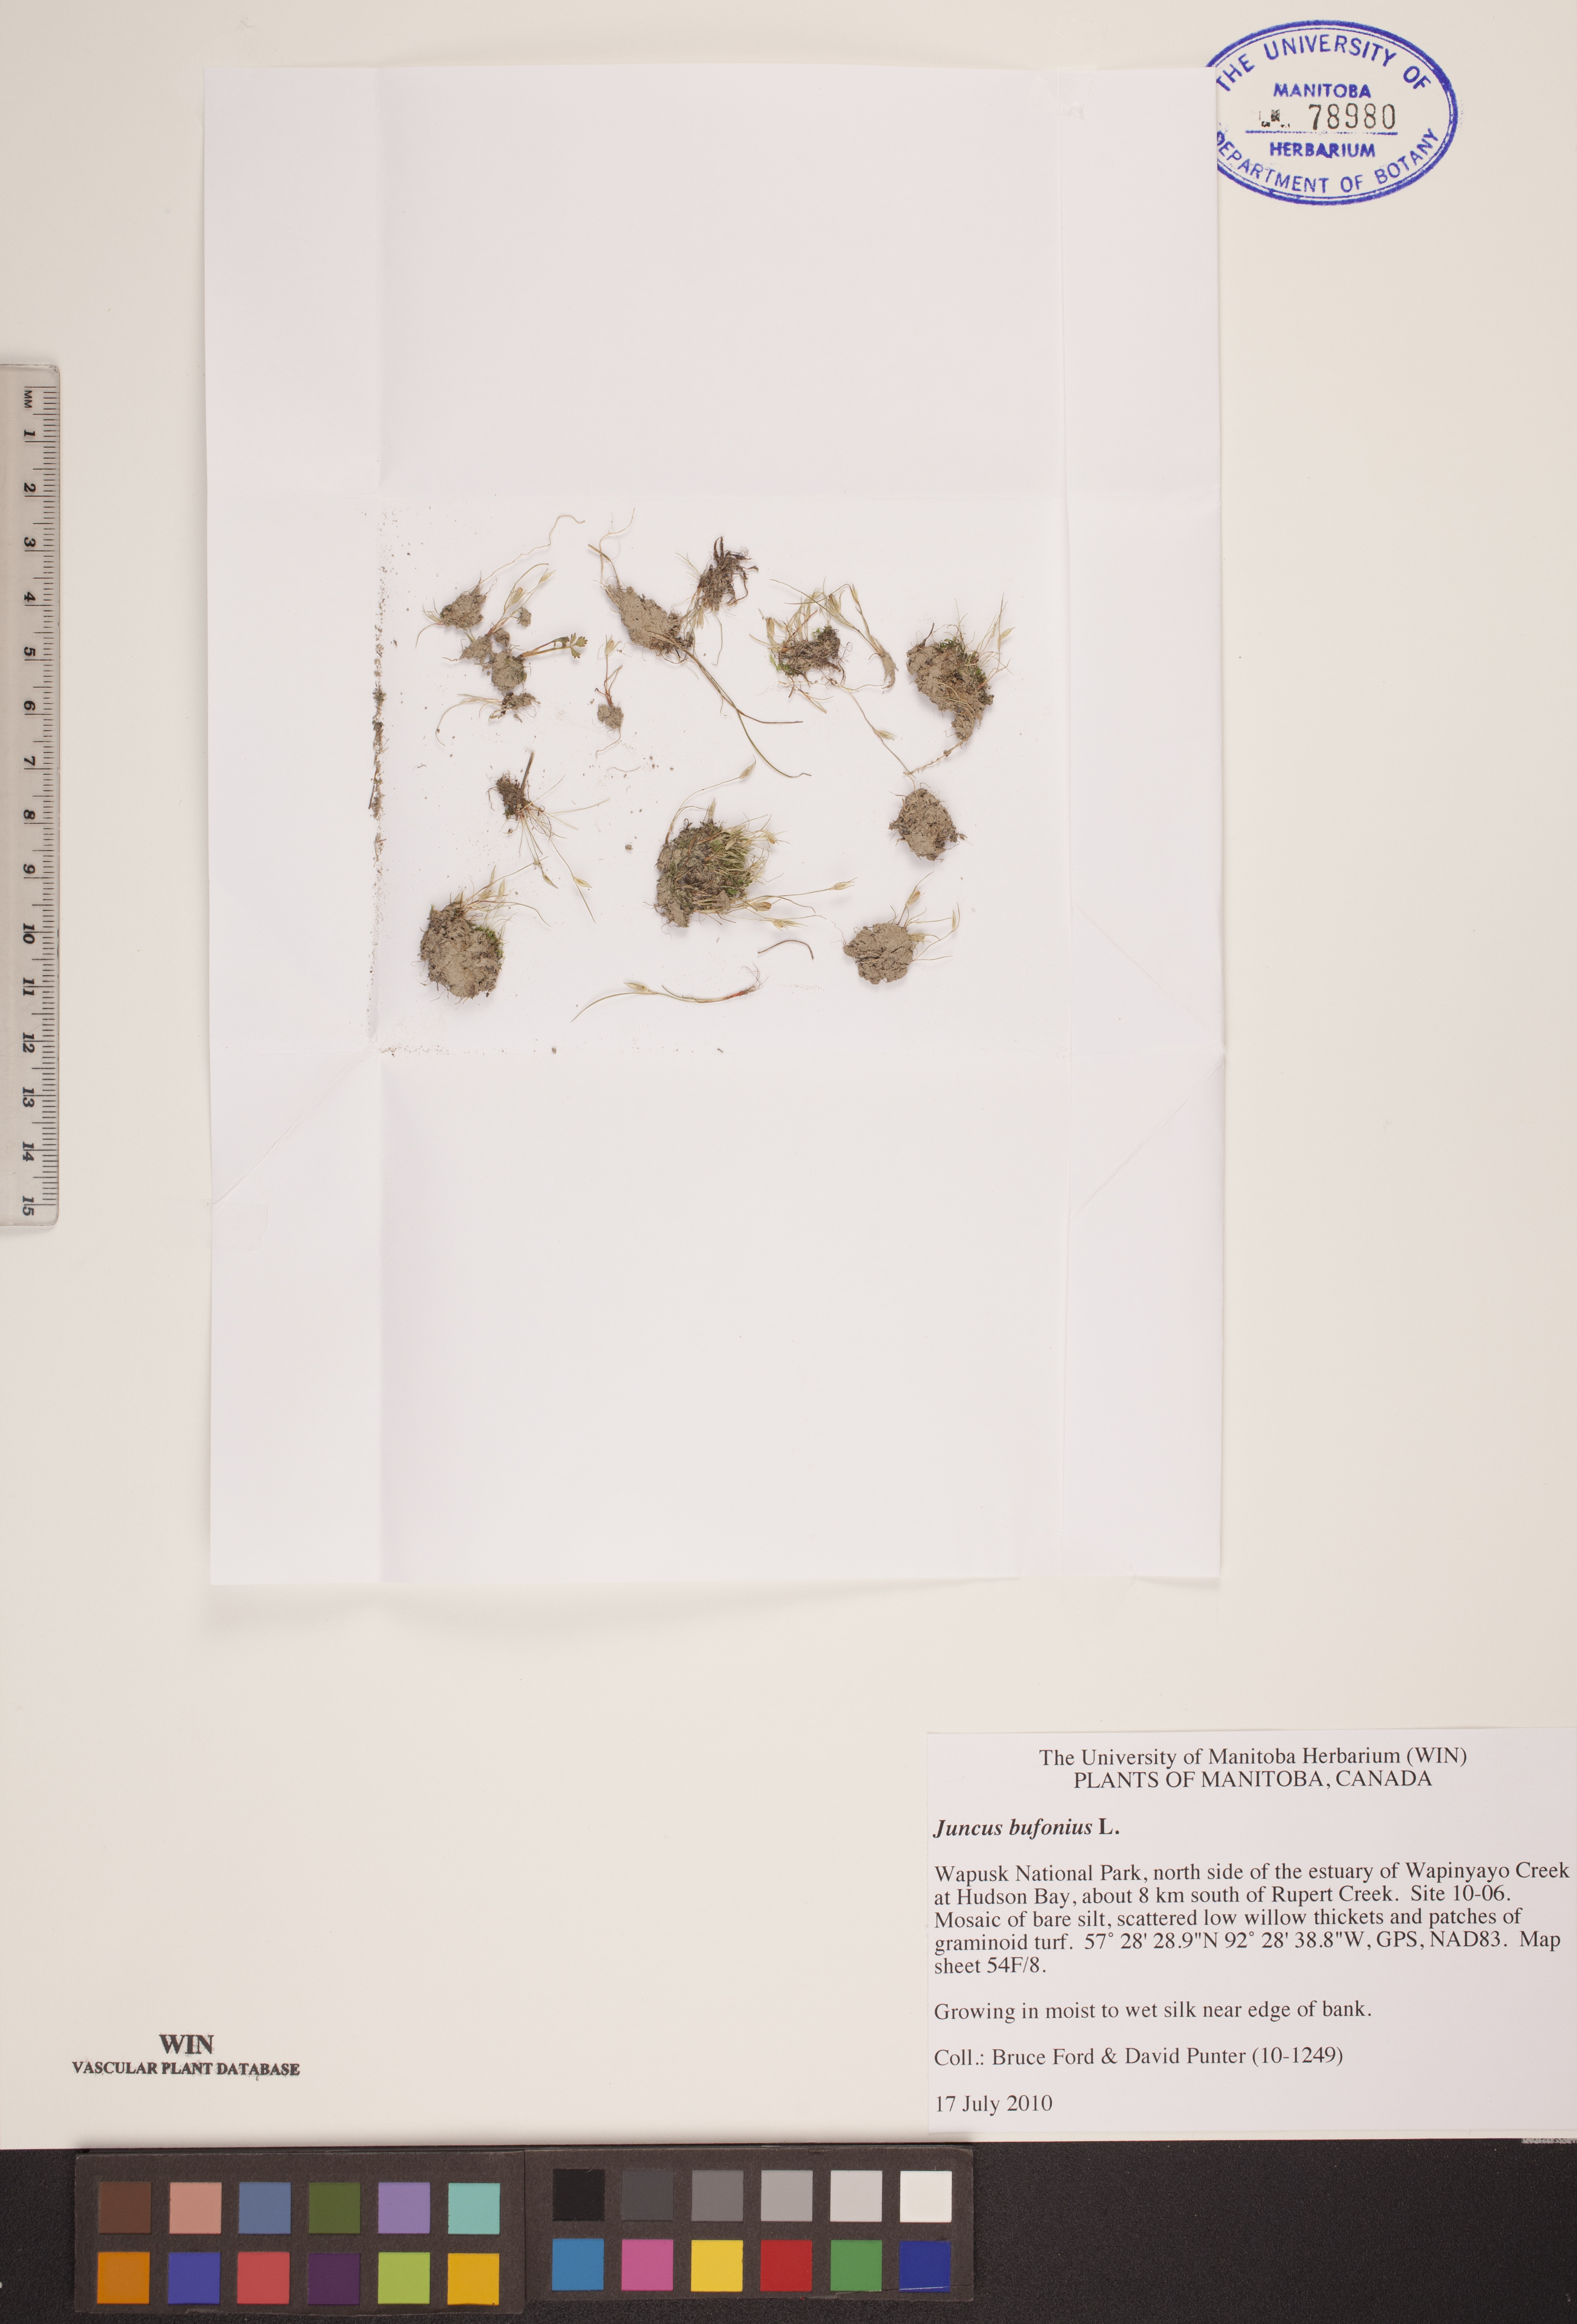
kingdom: Plantae
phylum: Tracheophyta
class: Liliopsida
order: Poales
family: Juncaceae
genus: Juncus
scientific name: Juncus bufonius
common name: Toad rush
